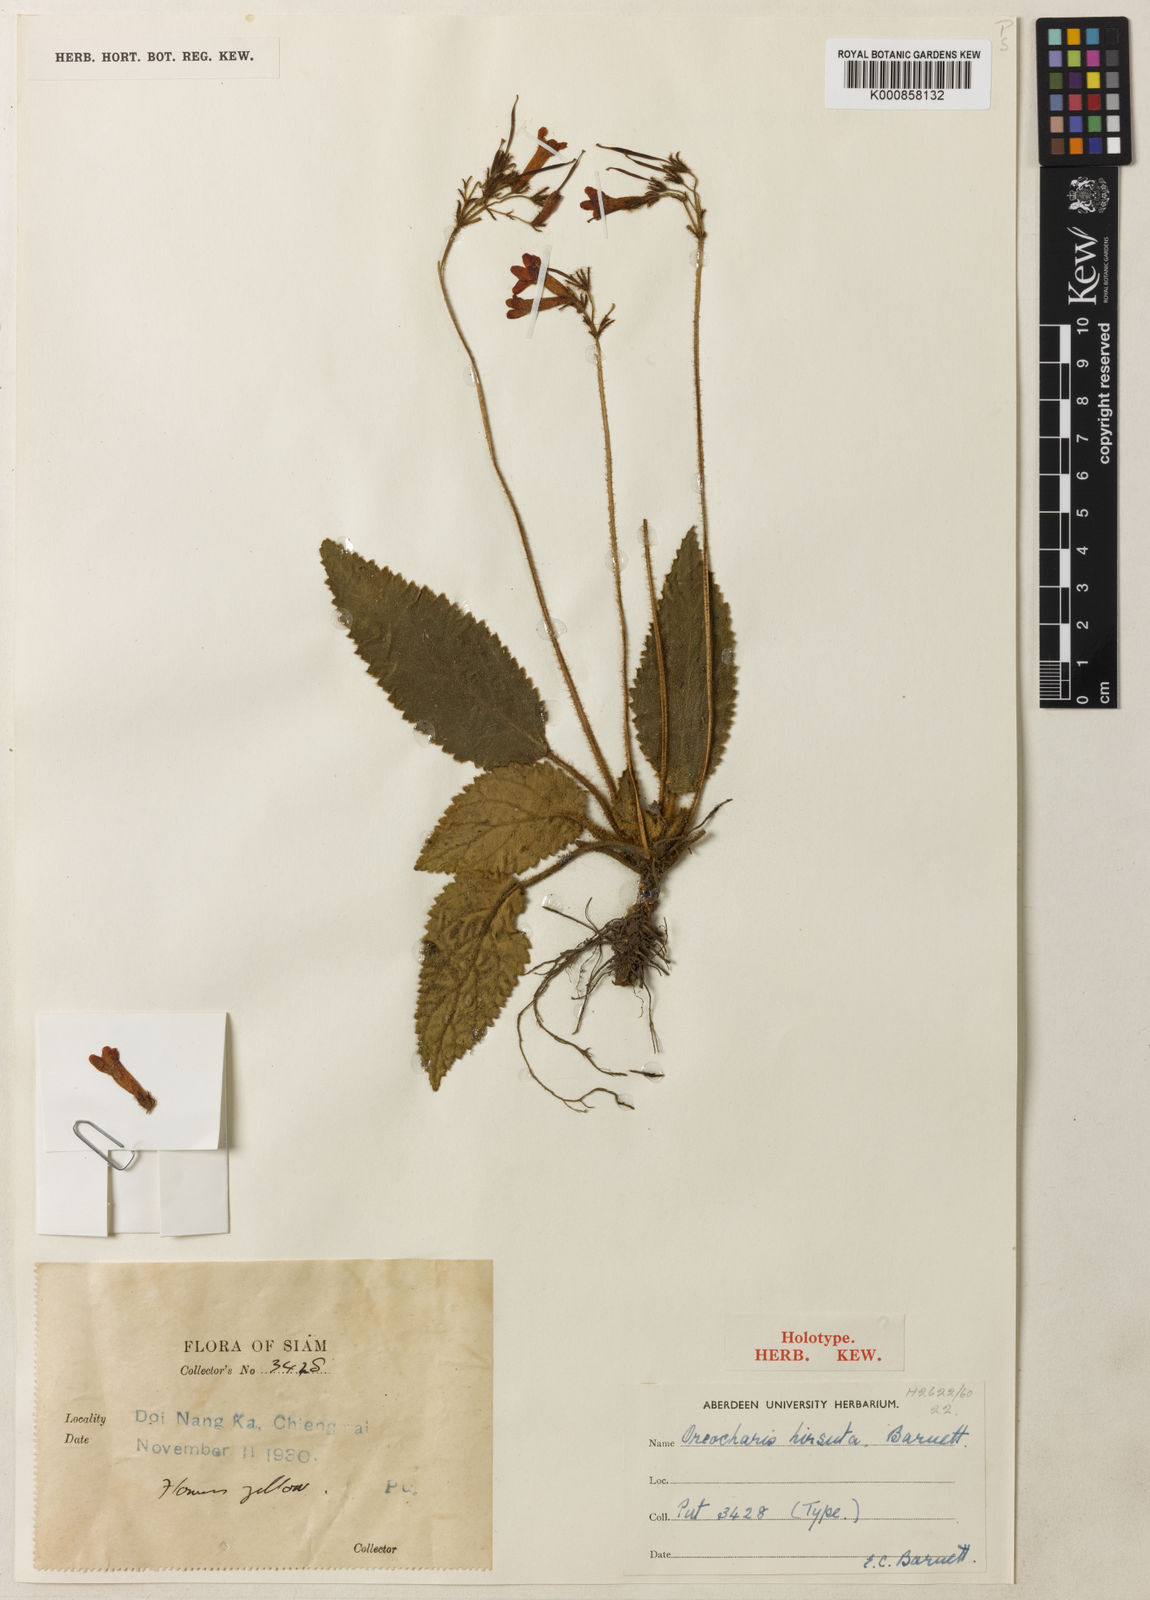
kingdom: Plantae
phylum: Tracheophyta
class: Magnoliopsida
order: Lamiales
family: Gesneriaceae
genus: Oreocharis
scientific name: Oreocharis hirsuta
